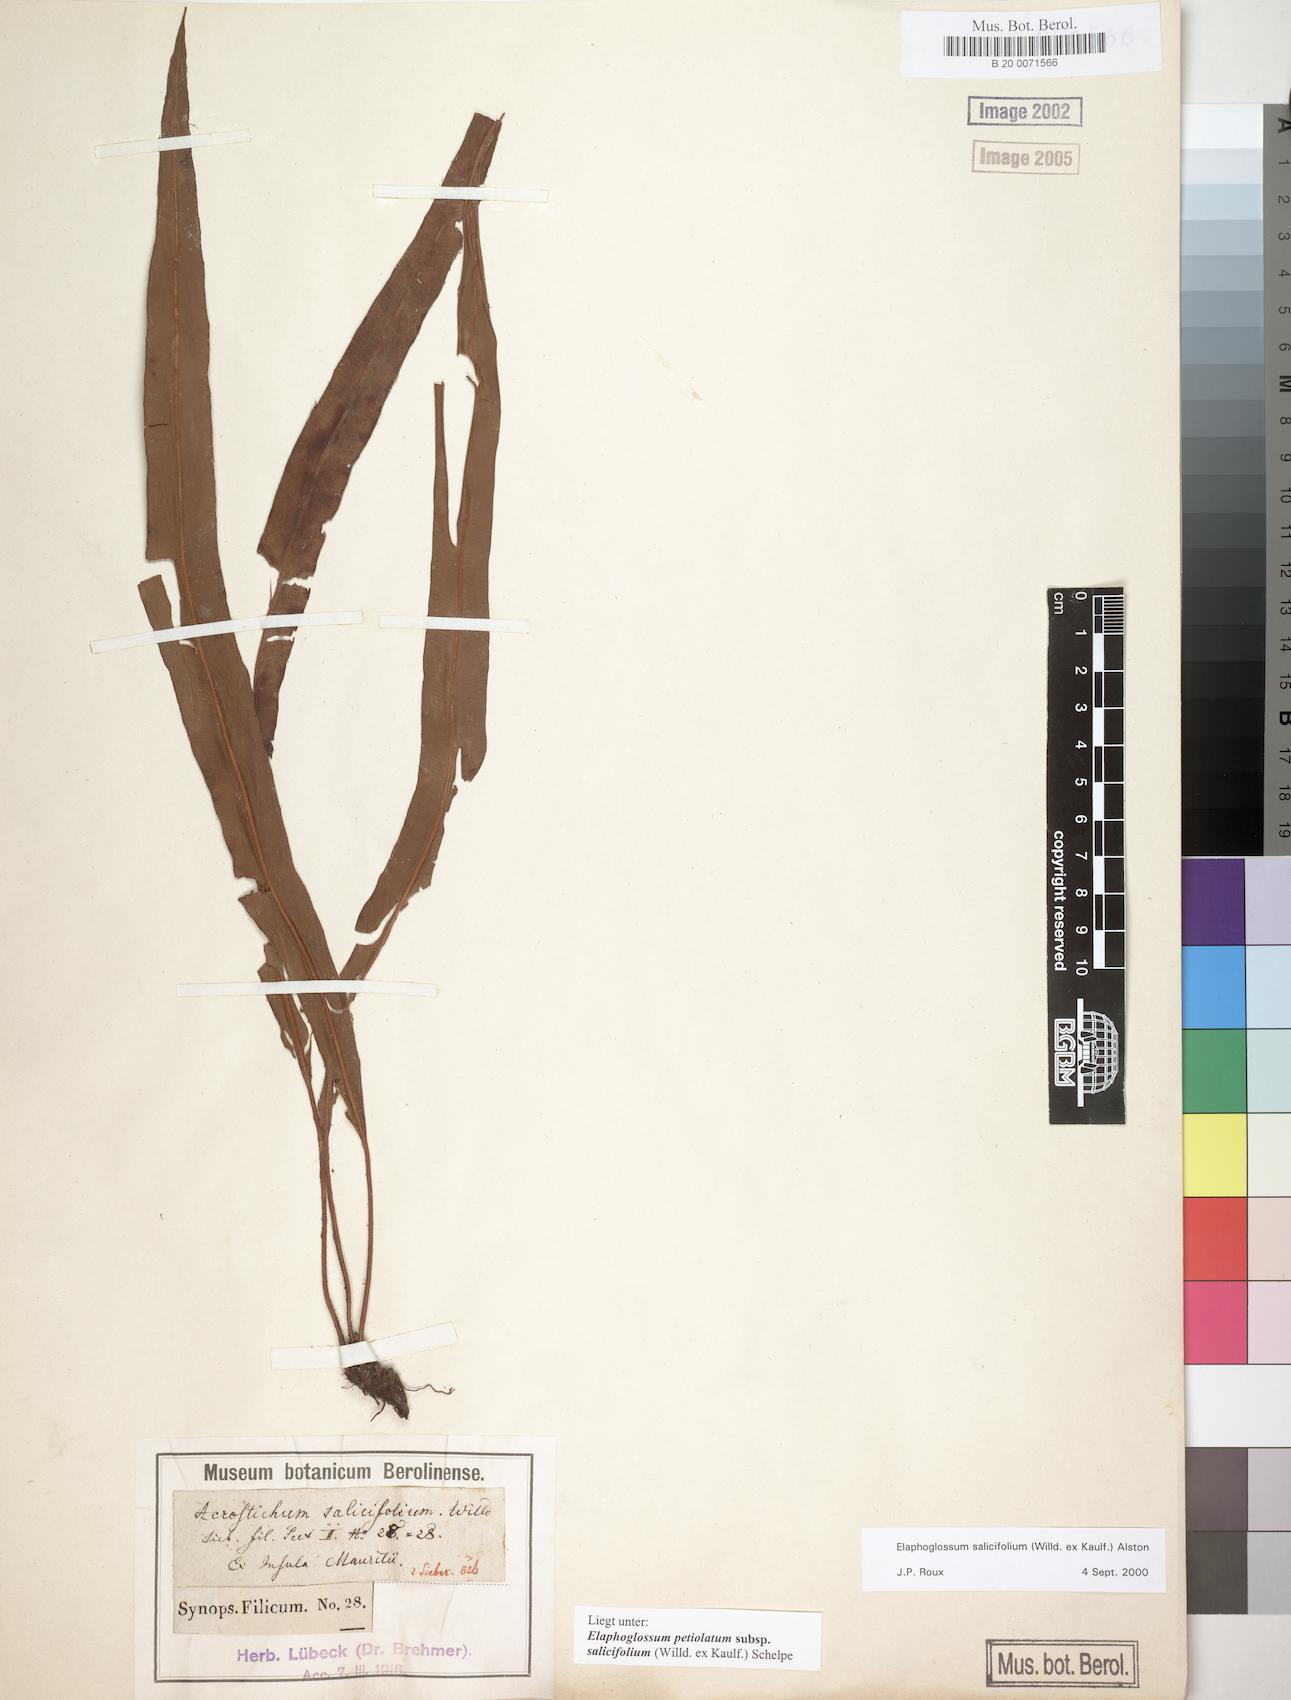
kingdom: Plantae
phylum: Tracheophyta
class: Polypodiopsida
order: Polypodiales
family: Dryopteridaceae
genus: Elaphoglossum
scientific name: Elaphoglossum lancifolium
